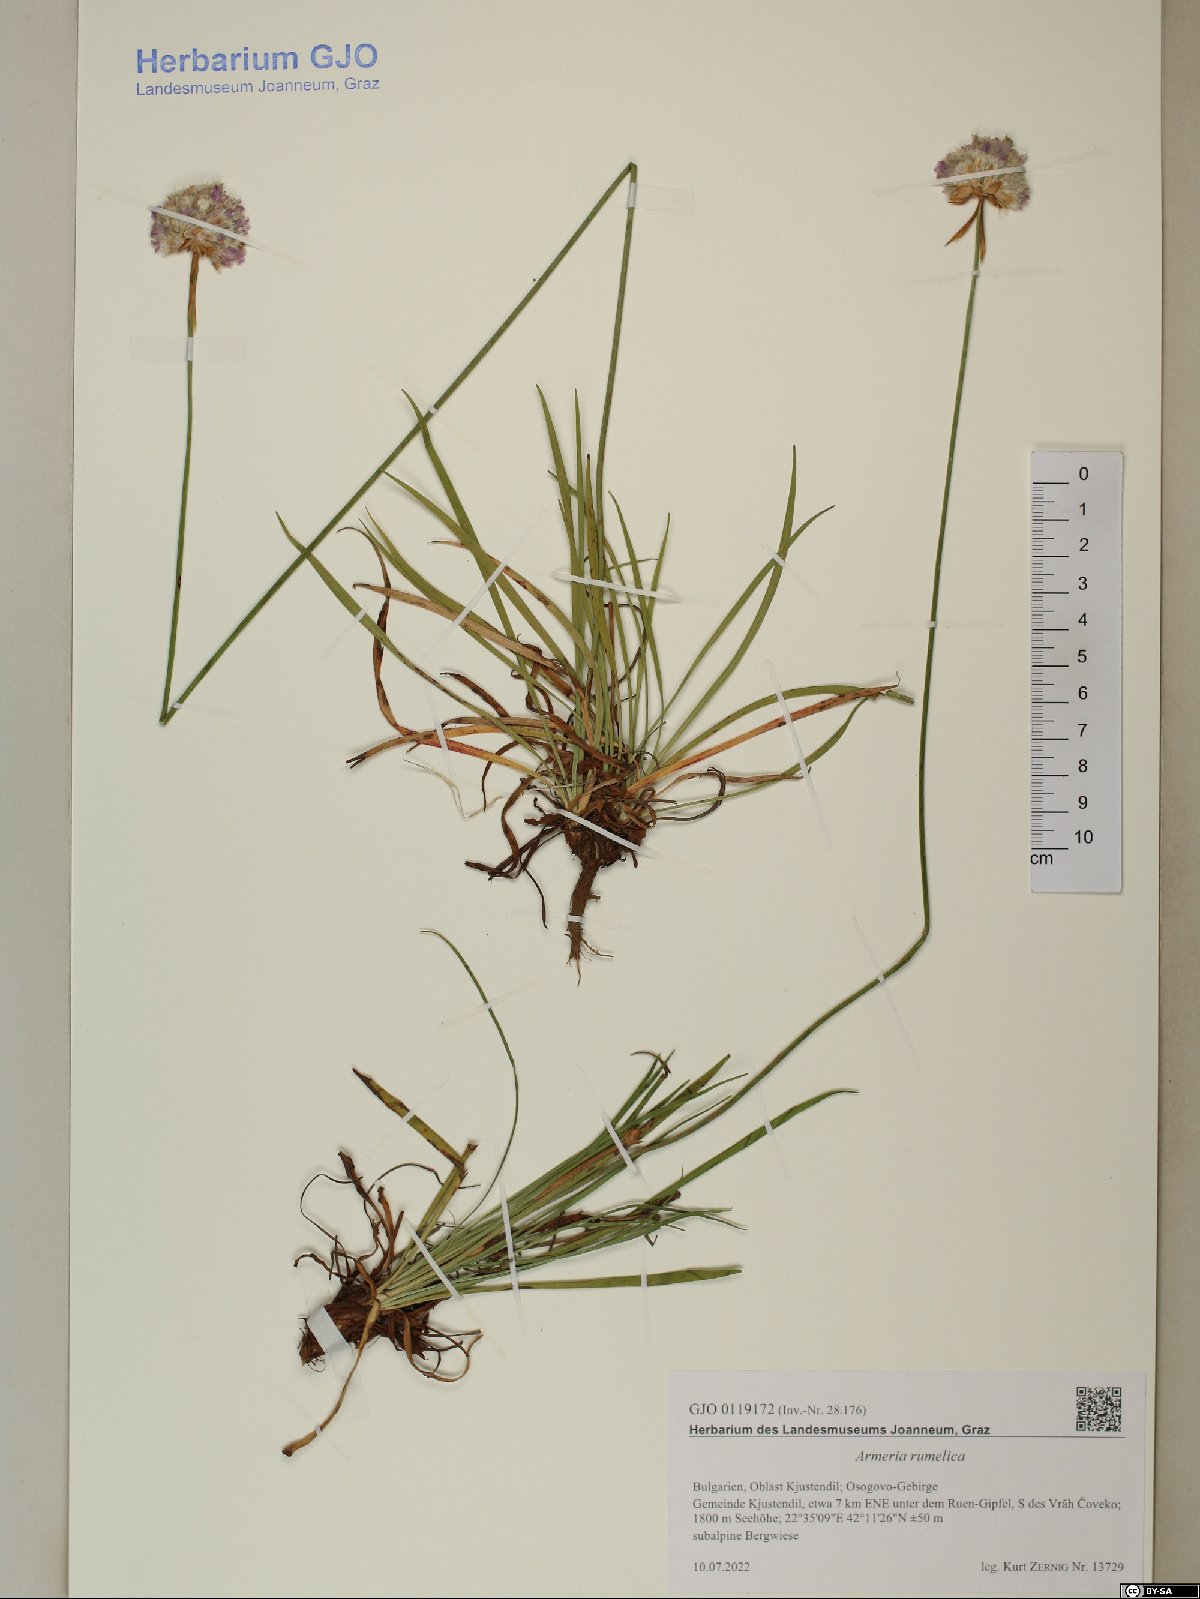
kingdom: Plantae
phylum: Tracheophyta
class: Magnoliopsida
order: Caryophyllales
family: Plumbaginaceae
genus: Armeria
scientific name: Armeria rumelica
